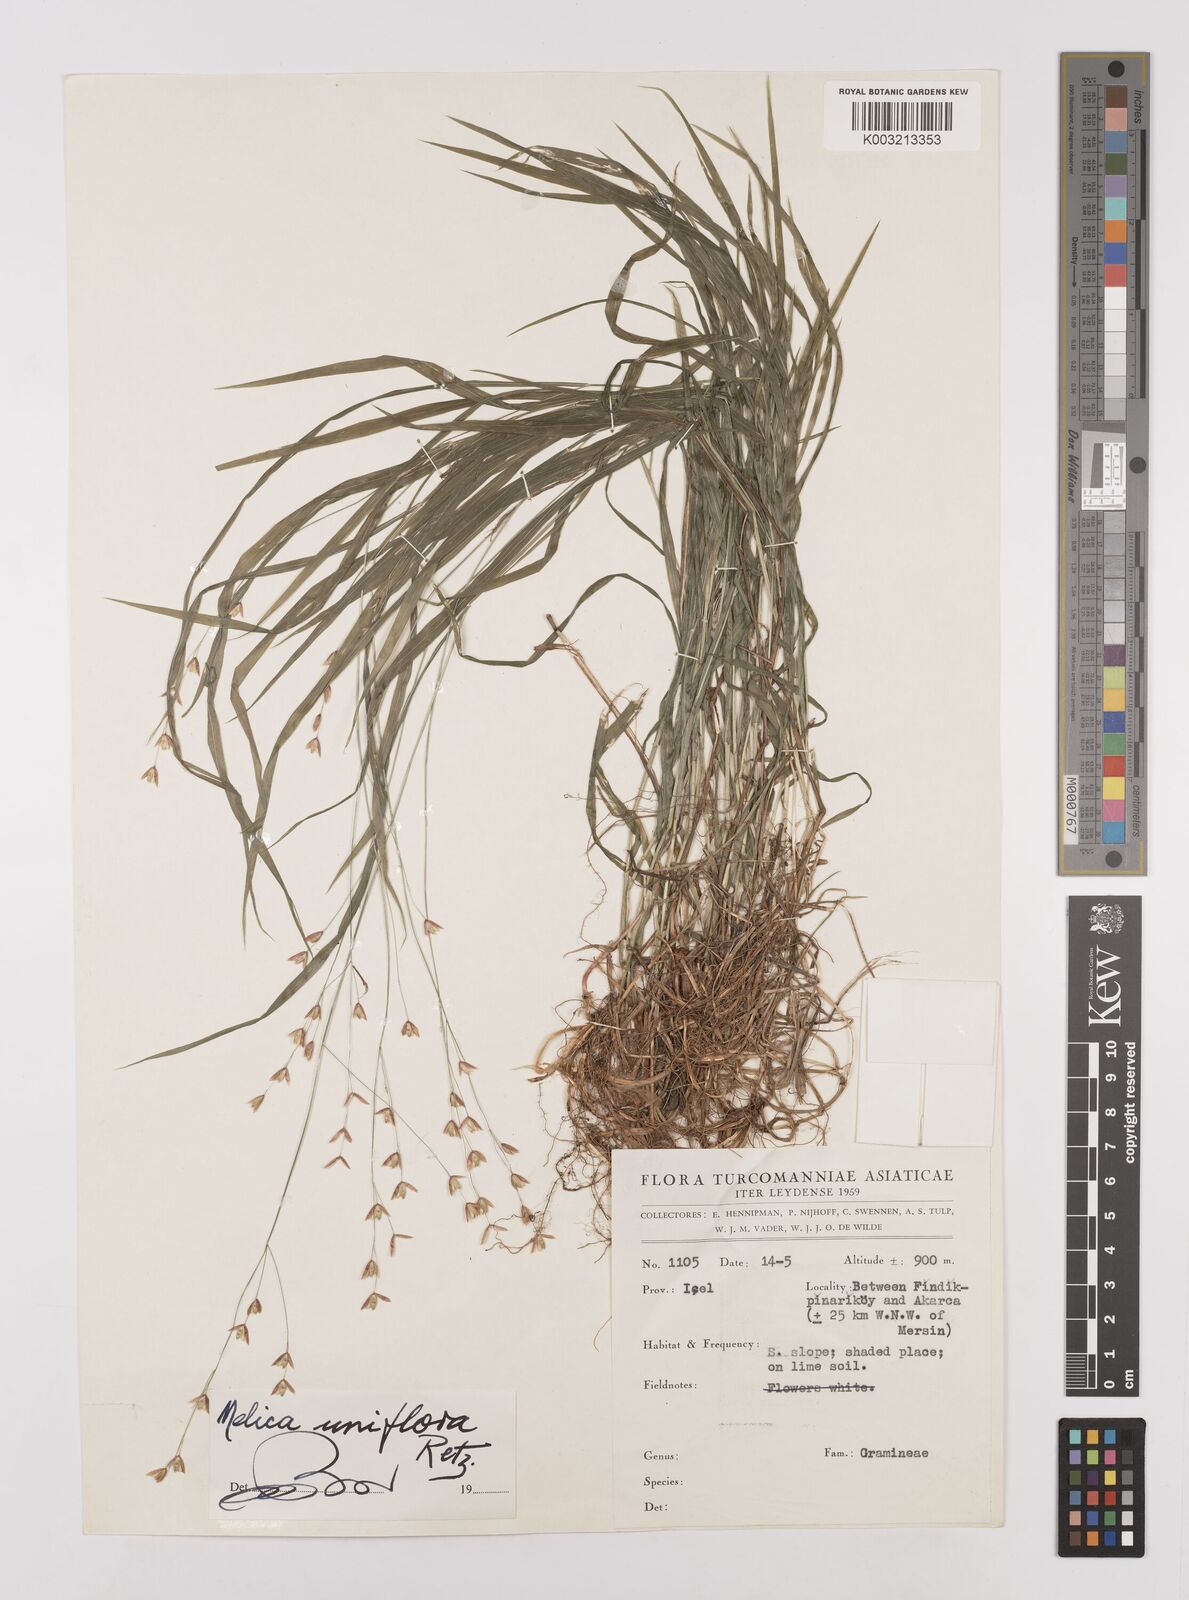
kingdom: Plantae
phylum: Tracheophyta
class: Liliopsida
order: Poales
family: Poaceae
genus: Melica
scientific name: Melica uniflora
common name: Wood melick
